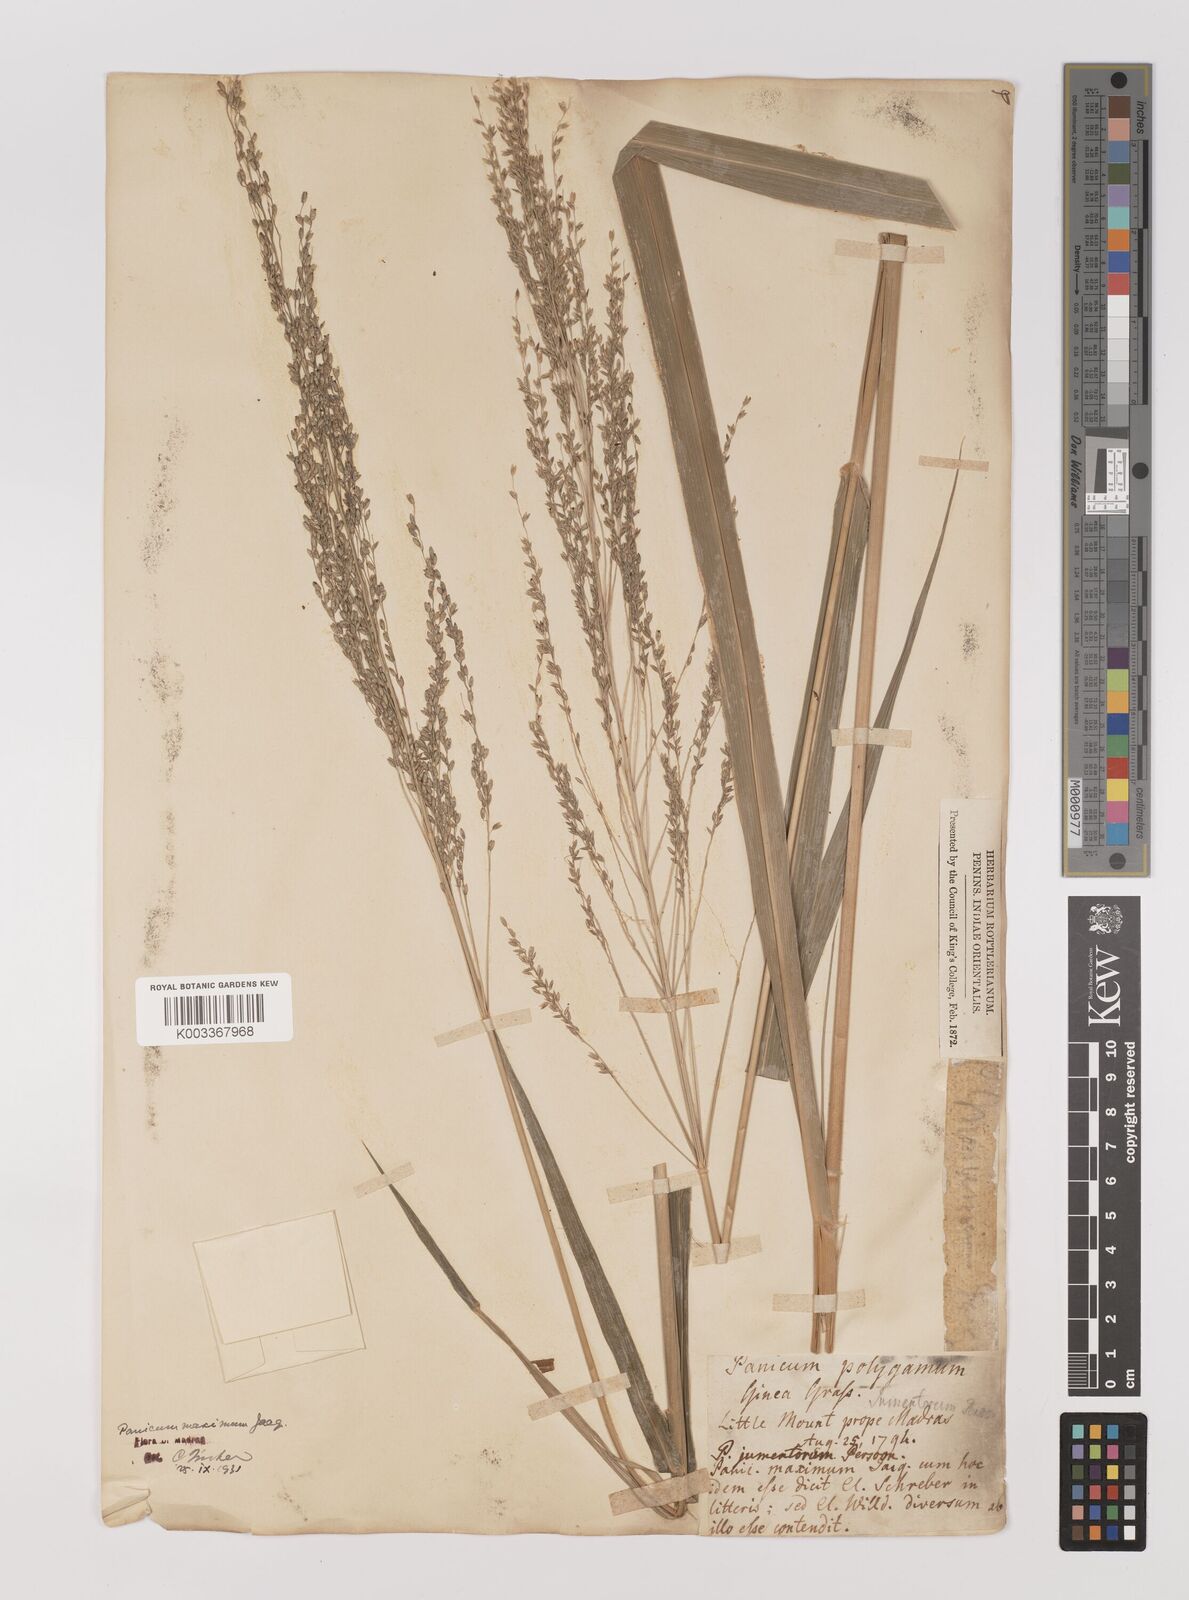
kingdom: Plantae
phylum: Tracheophyta
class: Liliopsida
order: Poales
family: Poaceae
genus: Megathyrsus
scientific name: Megathyrsus maximus
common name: Guineagrass
